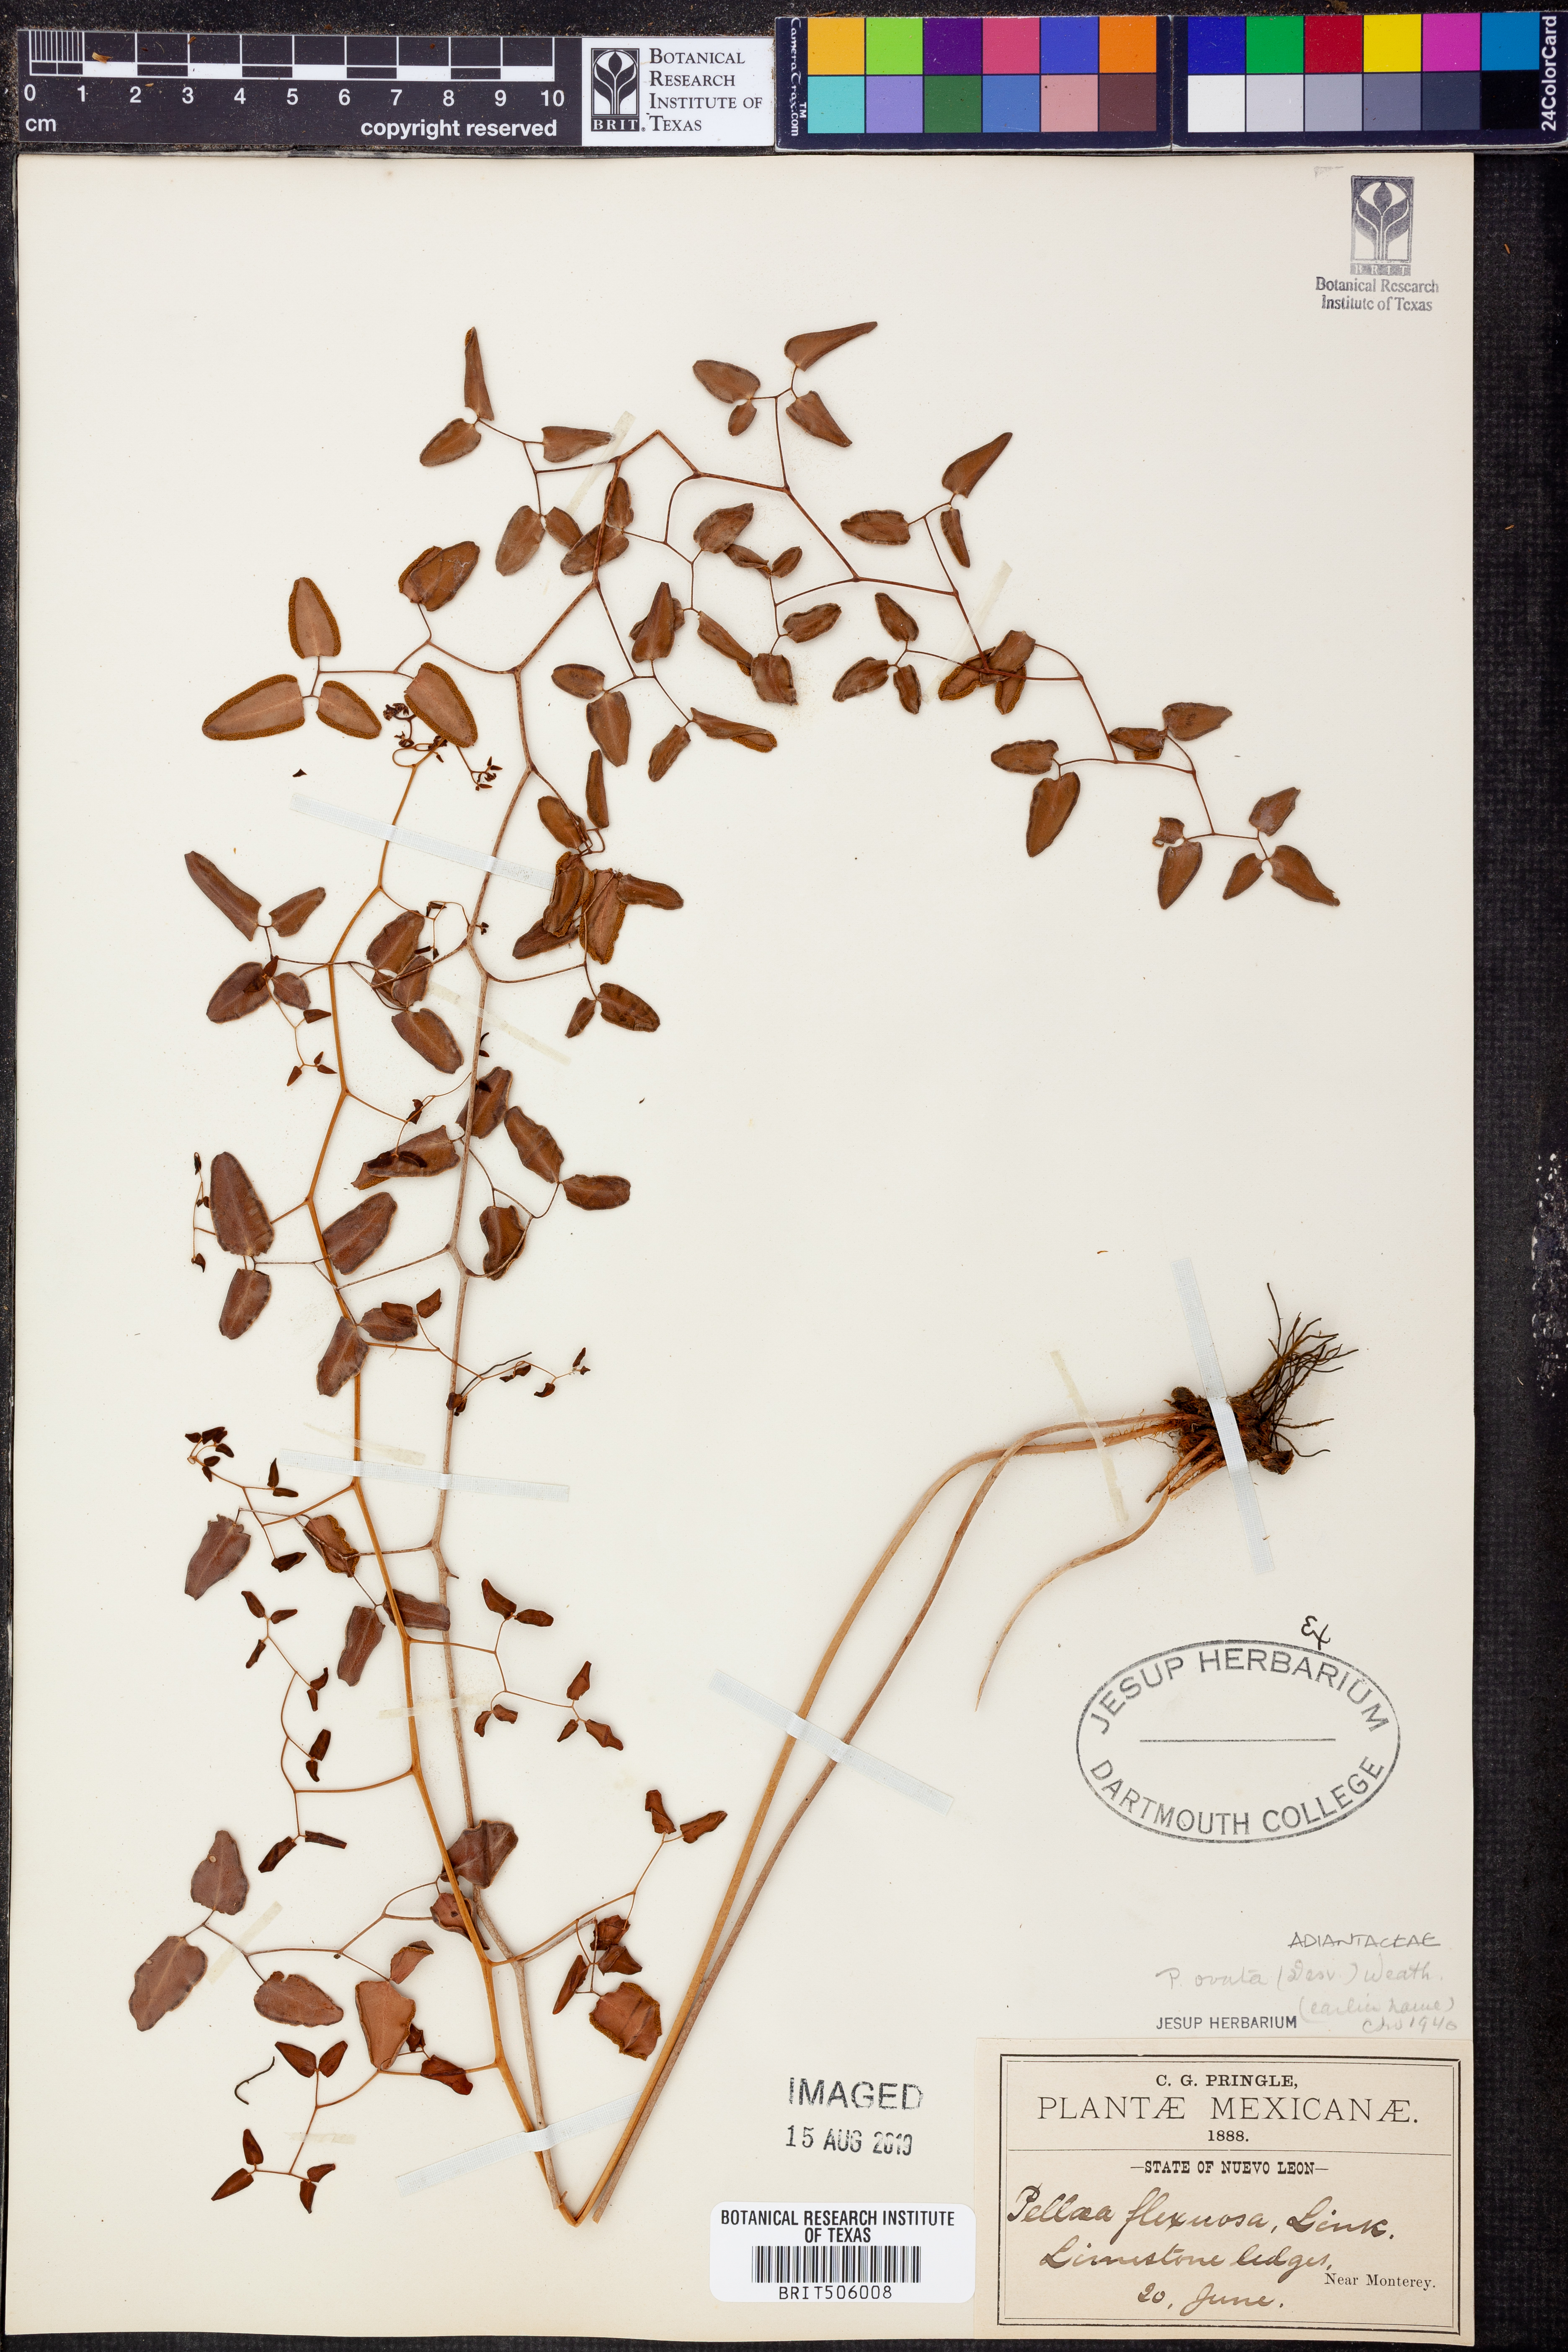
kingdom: Plantae
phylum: Tracheophyta
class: Polypodiopsida
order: Polypodiales
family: Pteridaceae
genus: Pellaea
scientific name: Pellaea ovata
